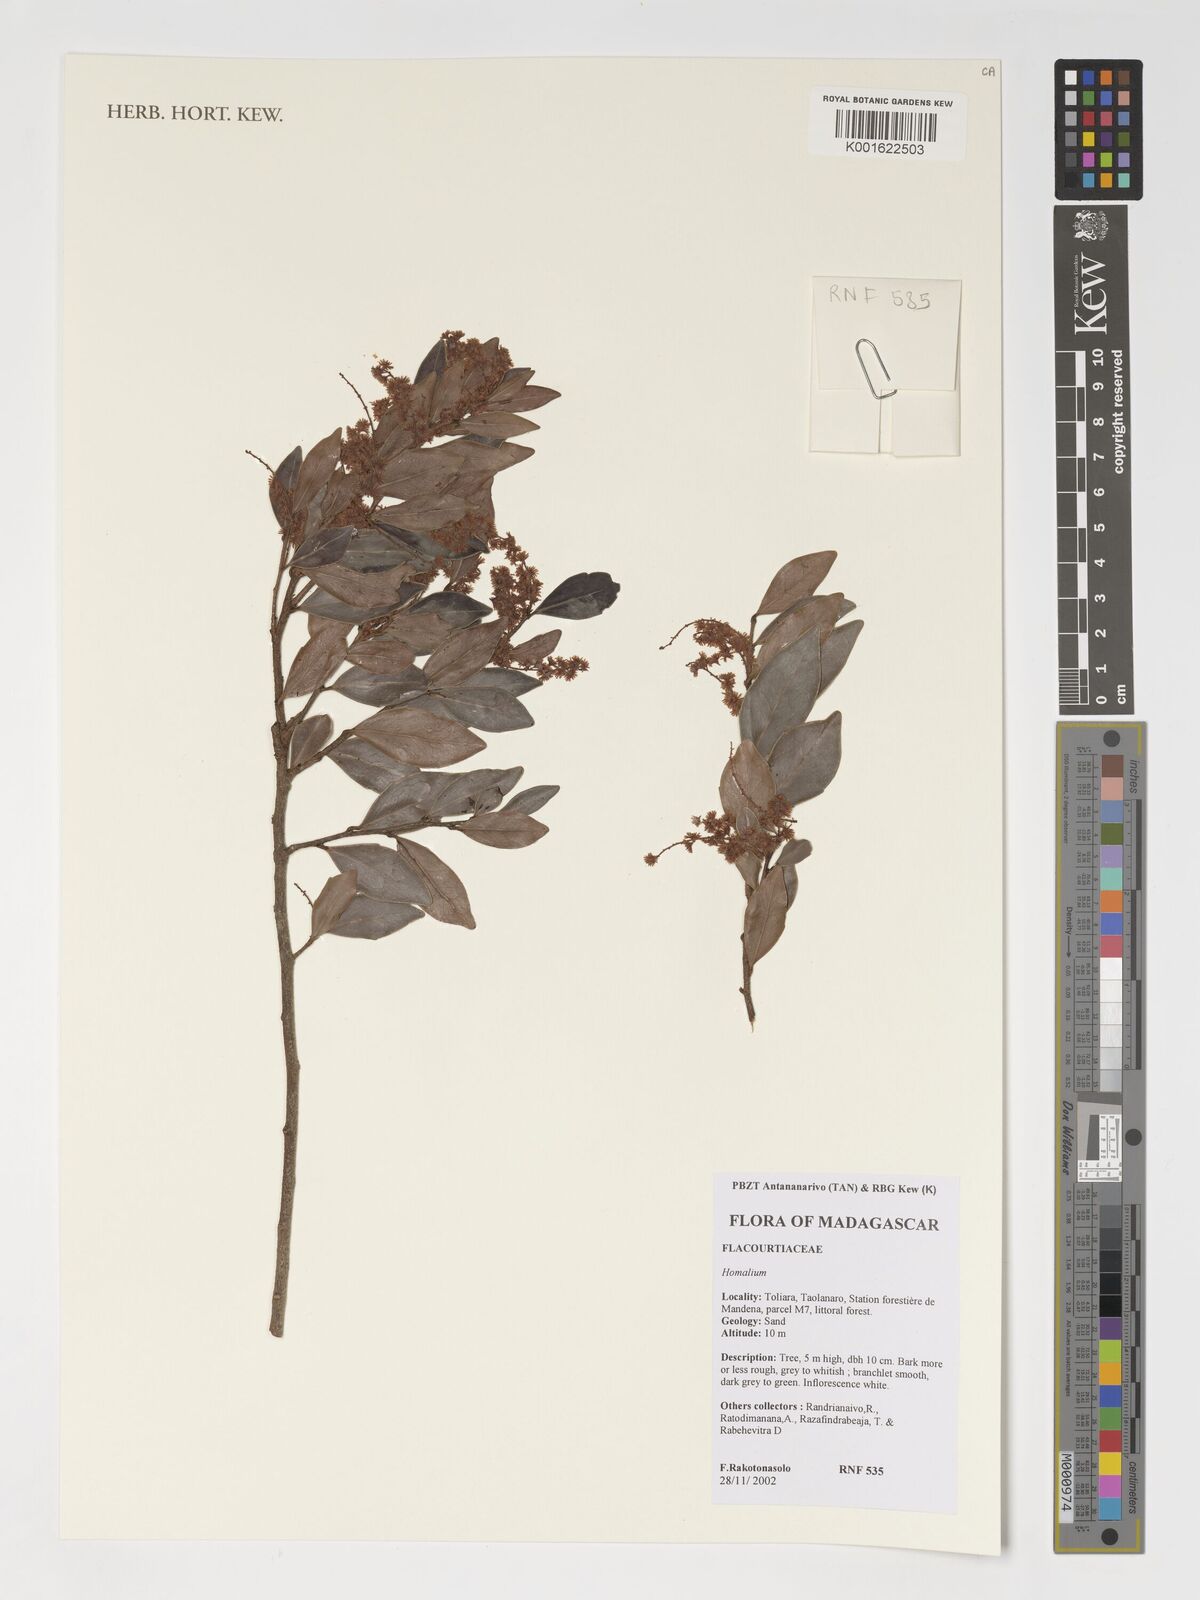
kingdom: Plantae
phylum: Tracheophyta
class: Magnoliopsida
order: Malpighiales
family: Salicaceae
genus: Homalium
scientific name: Homalium
